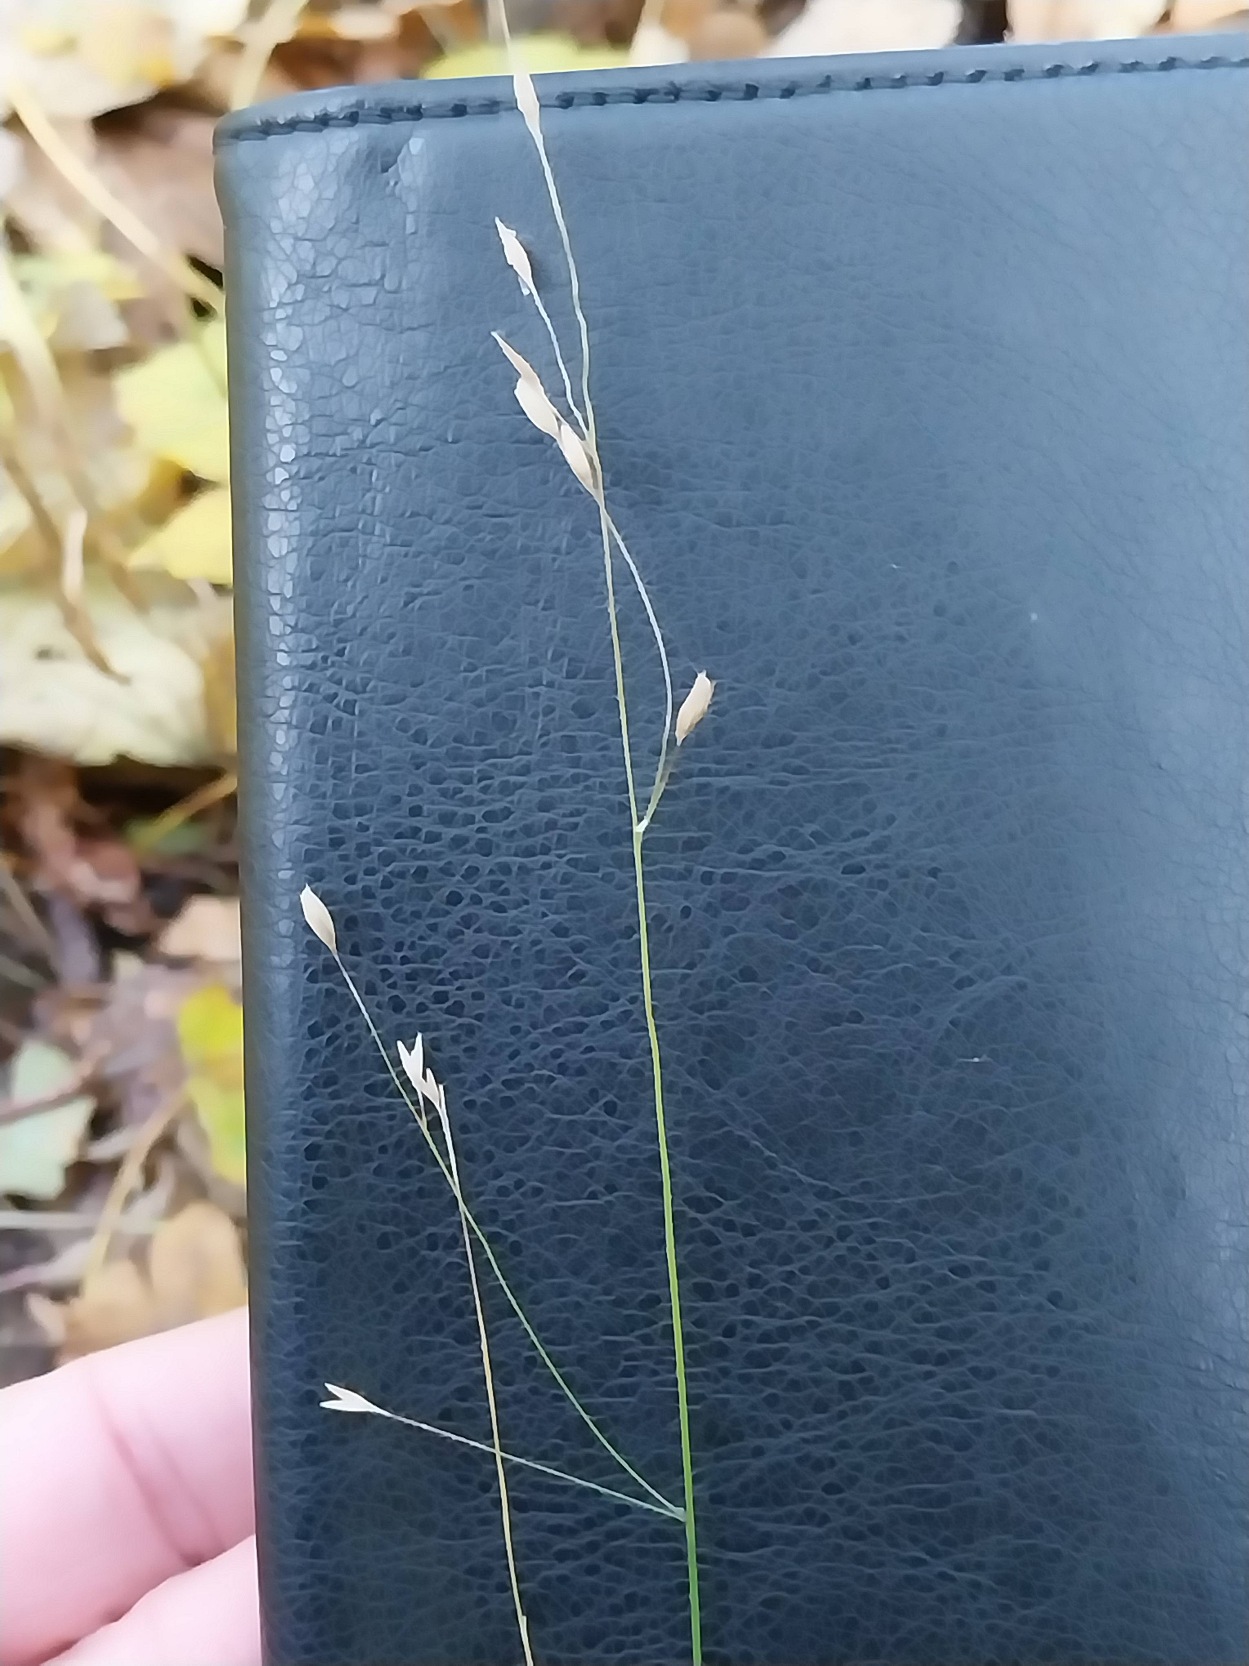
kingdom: Plantae
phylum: Tracheophyta
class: Liliopsida
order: Poales
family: Poaceae
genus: Melica
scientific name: Melica uniflora
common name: Enblomstret flitteraks
